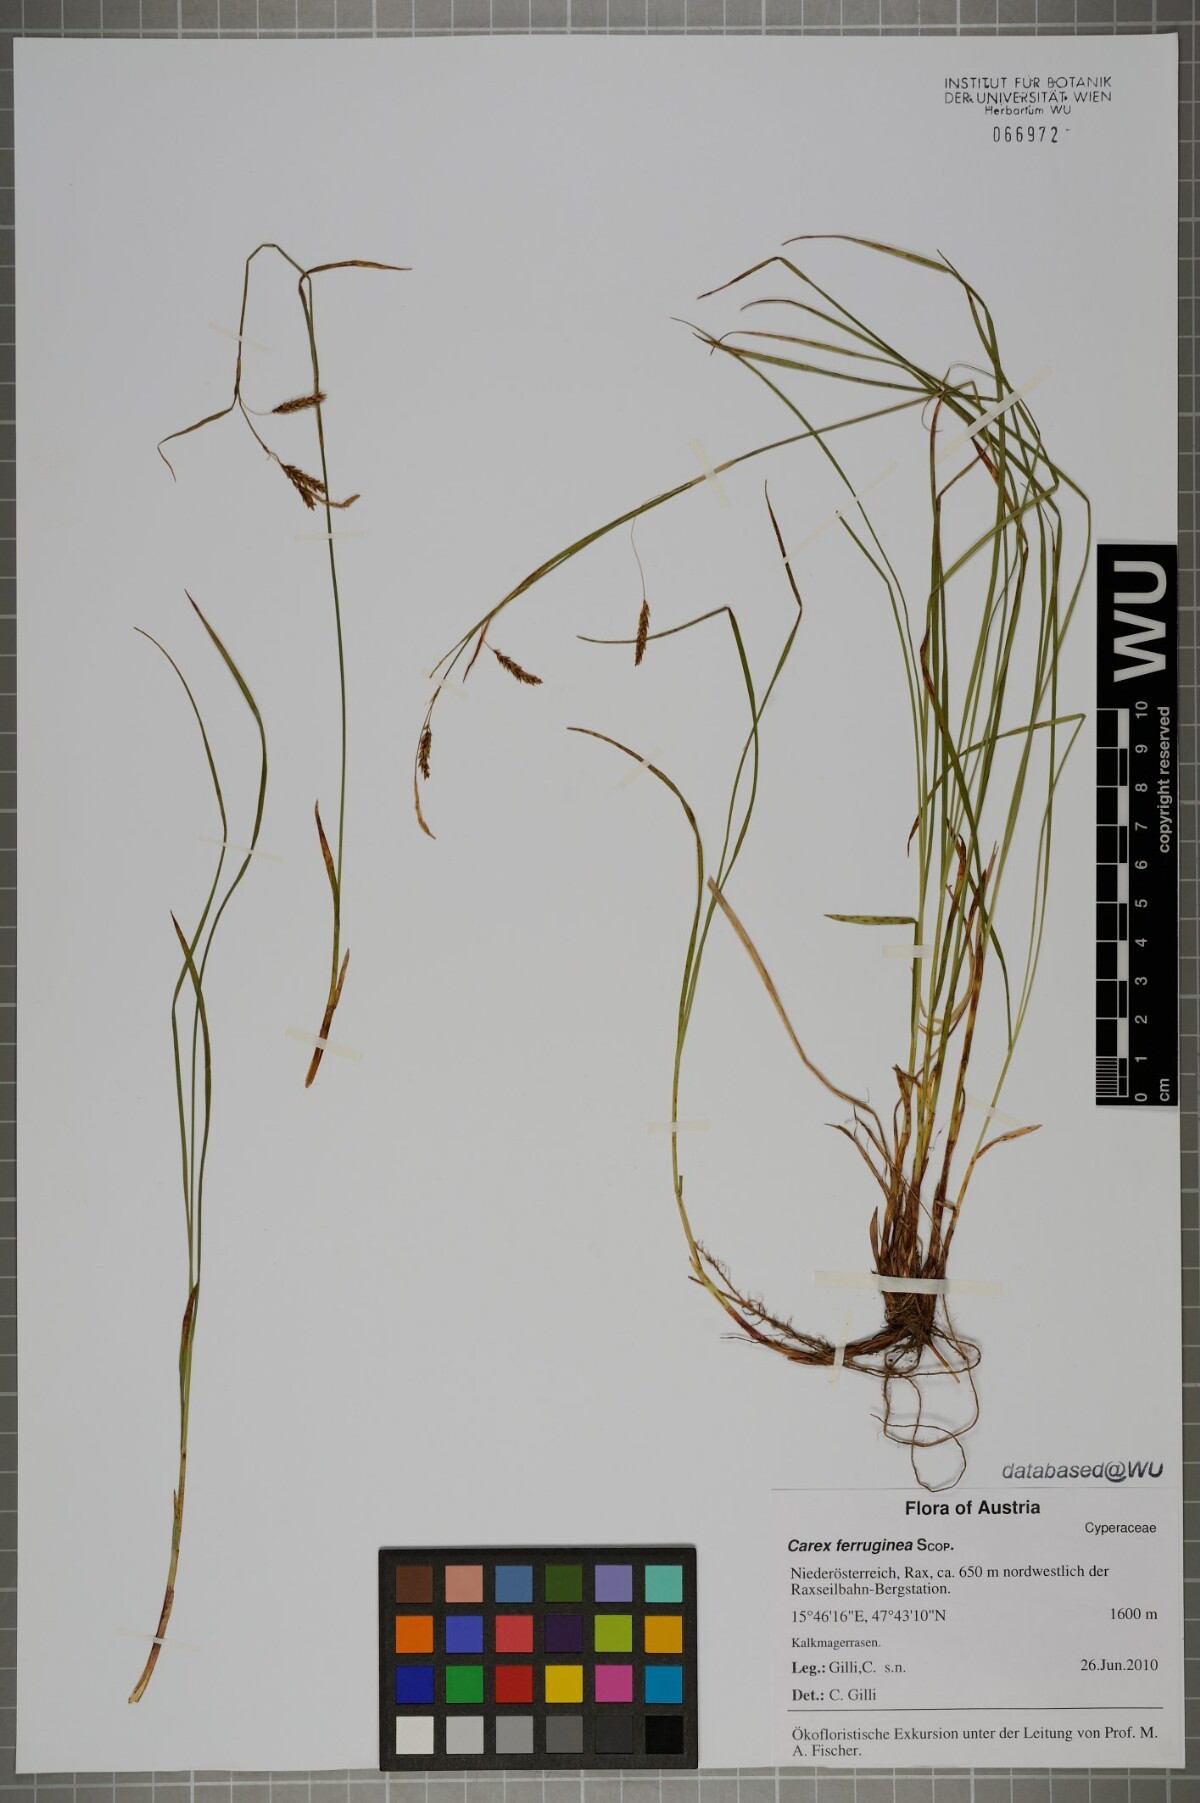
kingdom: Plantae
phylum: Tracheophyta
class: Liliopsida
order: Poales
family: Cyperaceae
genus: Carex
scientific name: Carex ferruginea
